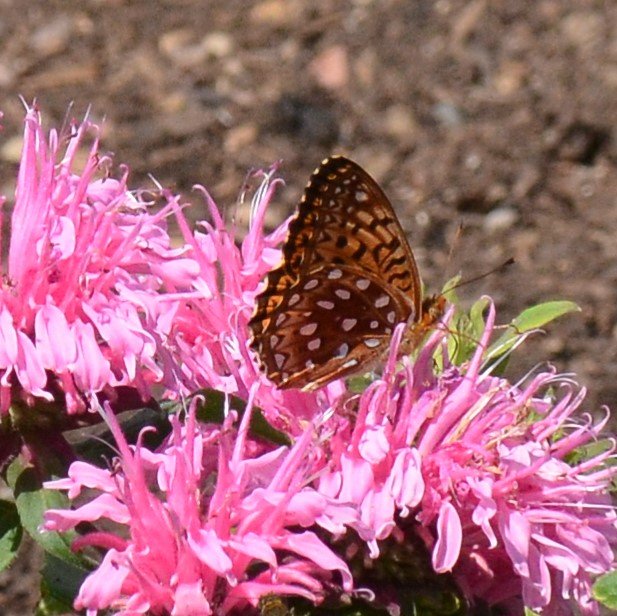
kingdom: Animalia
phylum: Arthropoda
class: Insecta
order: Lepidoptera
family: Nymphalidae
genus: Speyeria
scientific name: Speyeria aphrodite
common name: Aphrodite Fritillary
